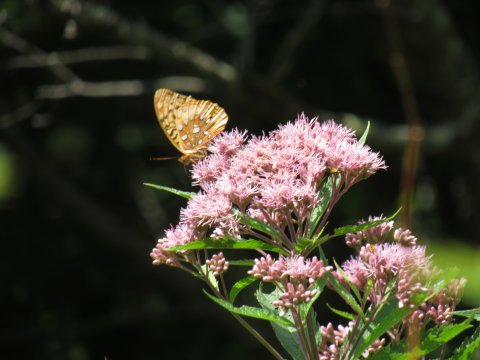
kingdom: Animalia
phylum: Arthropoda
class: Insecta
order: Lepidoptera
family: Nymphalidae
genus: Speyeria
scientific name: Speyeria cybele
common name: Great Spangled Fritillary
